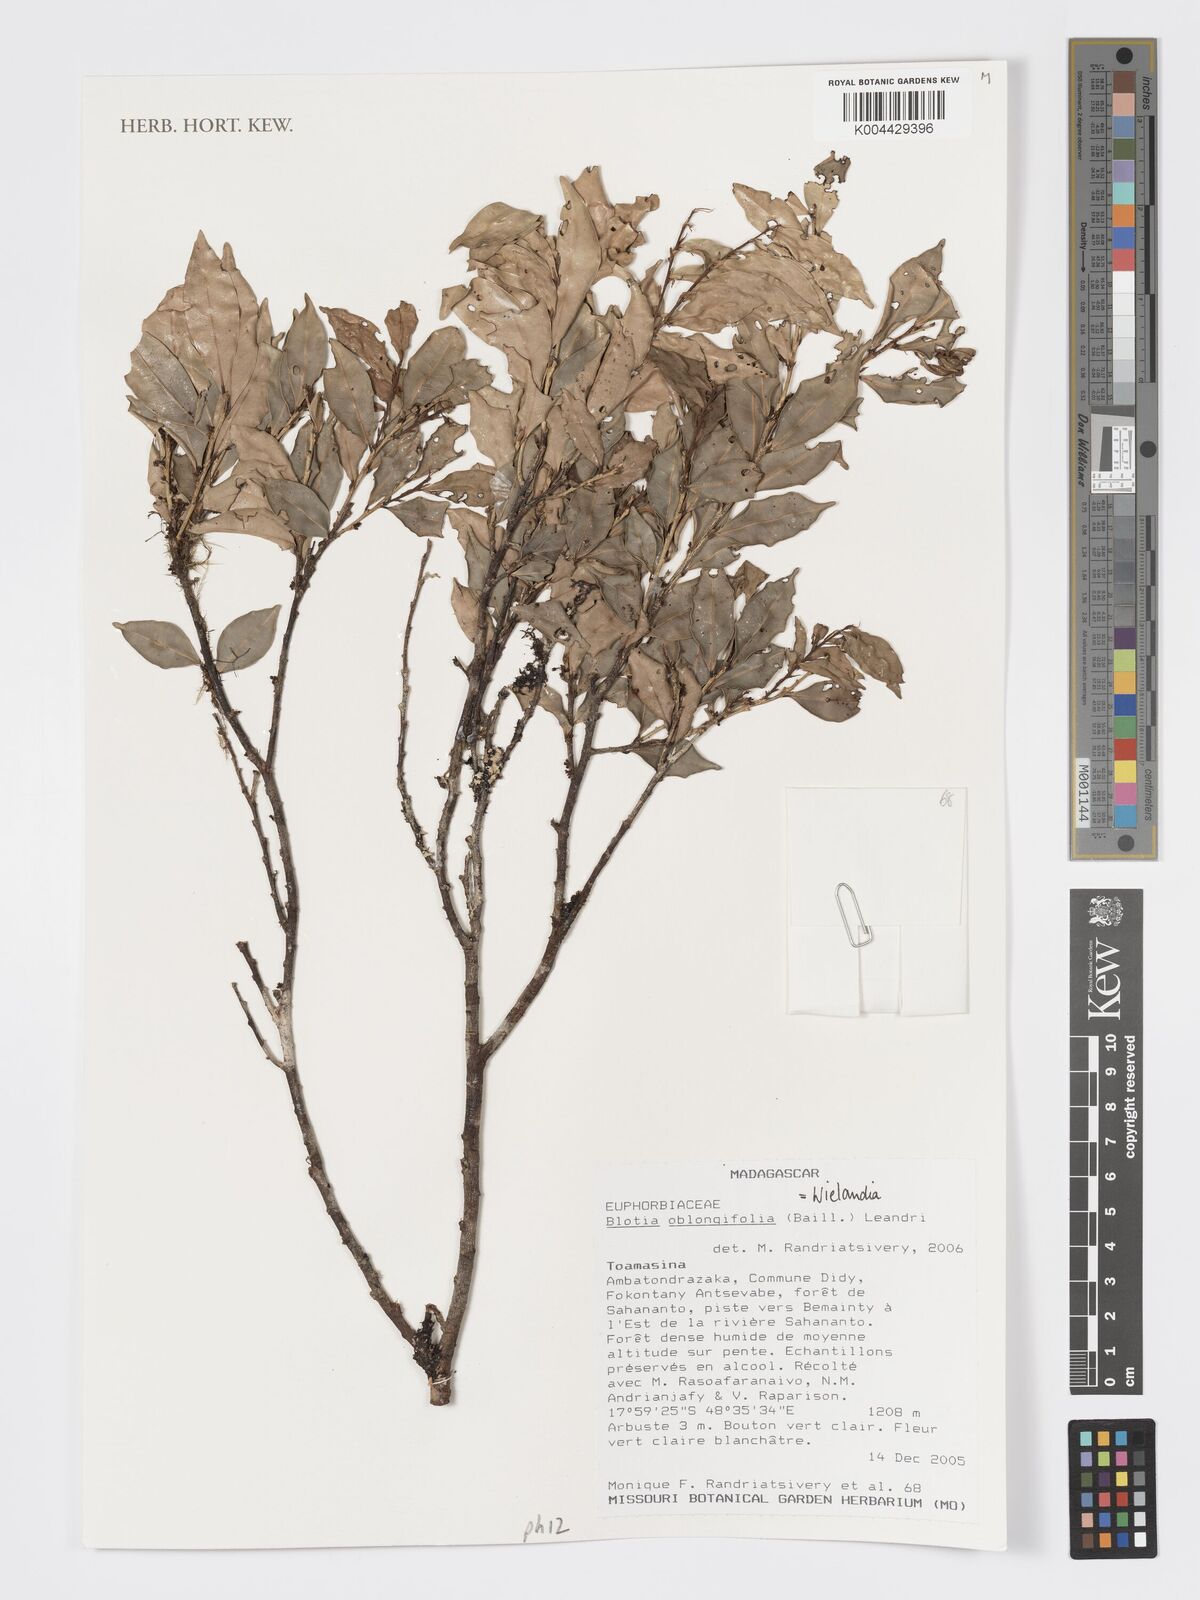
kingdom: Plantae
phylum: Tracheophyta
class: Magnoliopsida
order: Malpighiales
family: Phyllanthaceae
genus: Wielandia
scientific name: Wielandia oblongifolia
